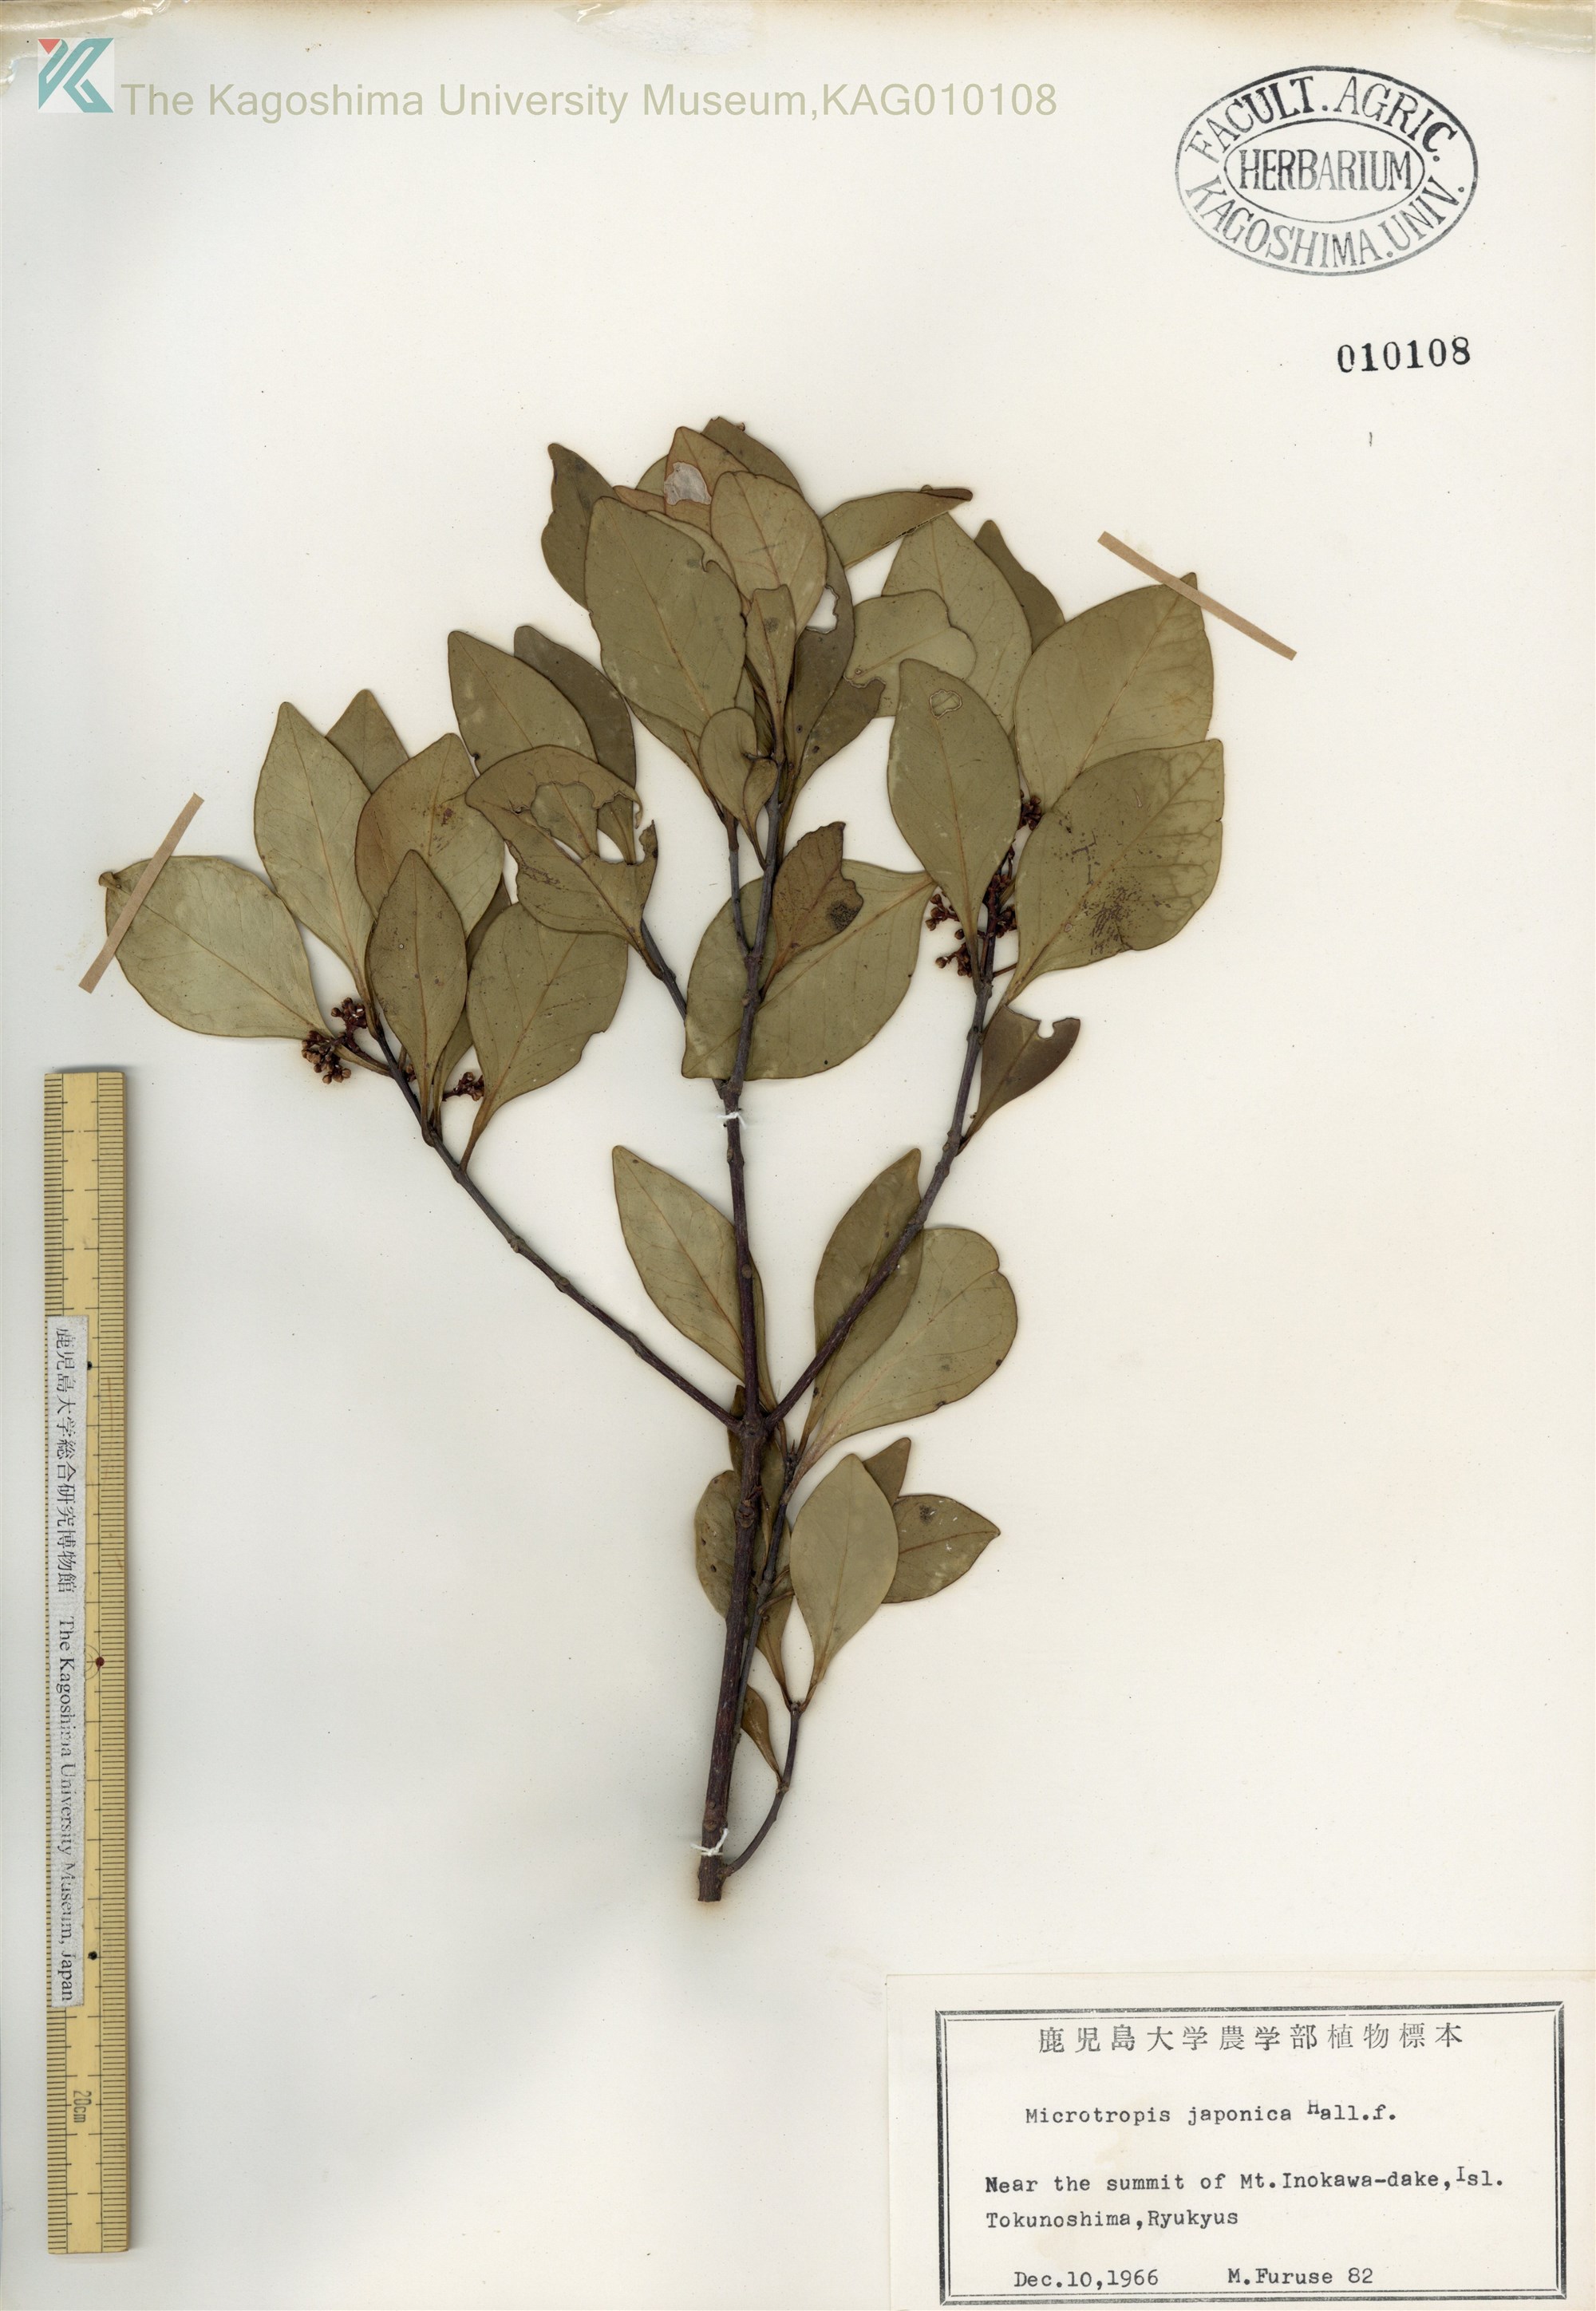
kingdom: Plantae
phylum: Tracheophyta
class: Magnoliopsida
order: Celastrales
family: Celastraceae
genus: Microtropis
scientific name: Microtropis japonica
